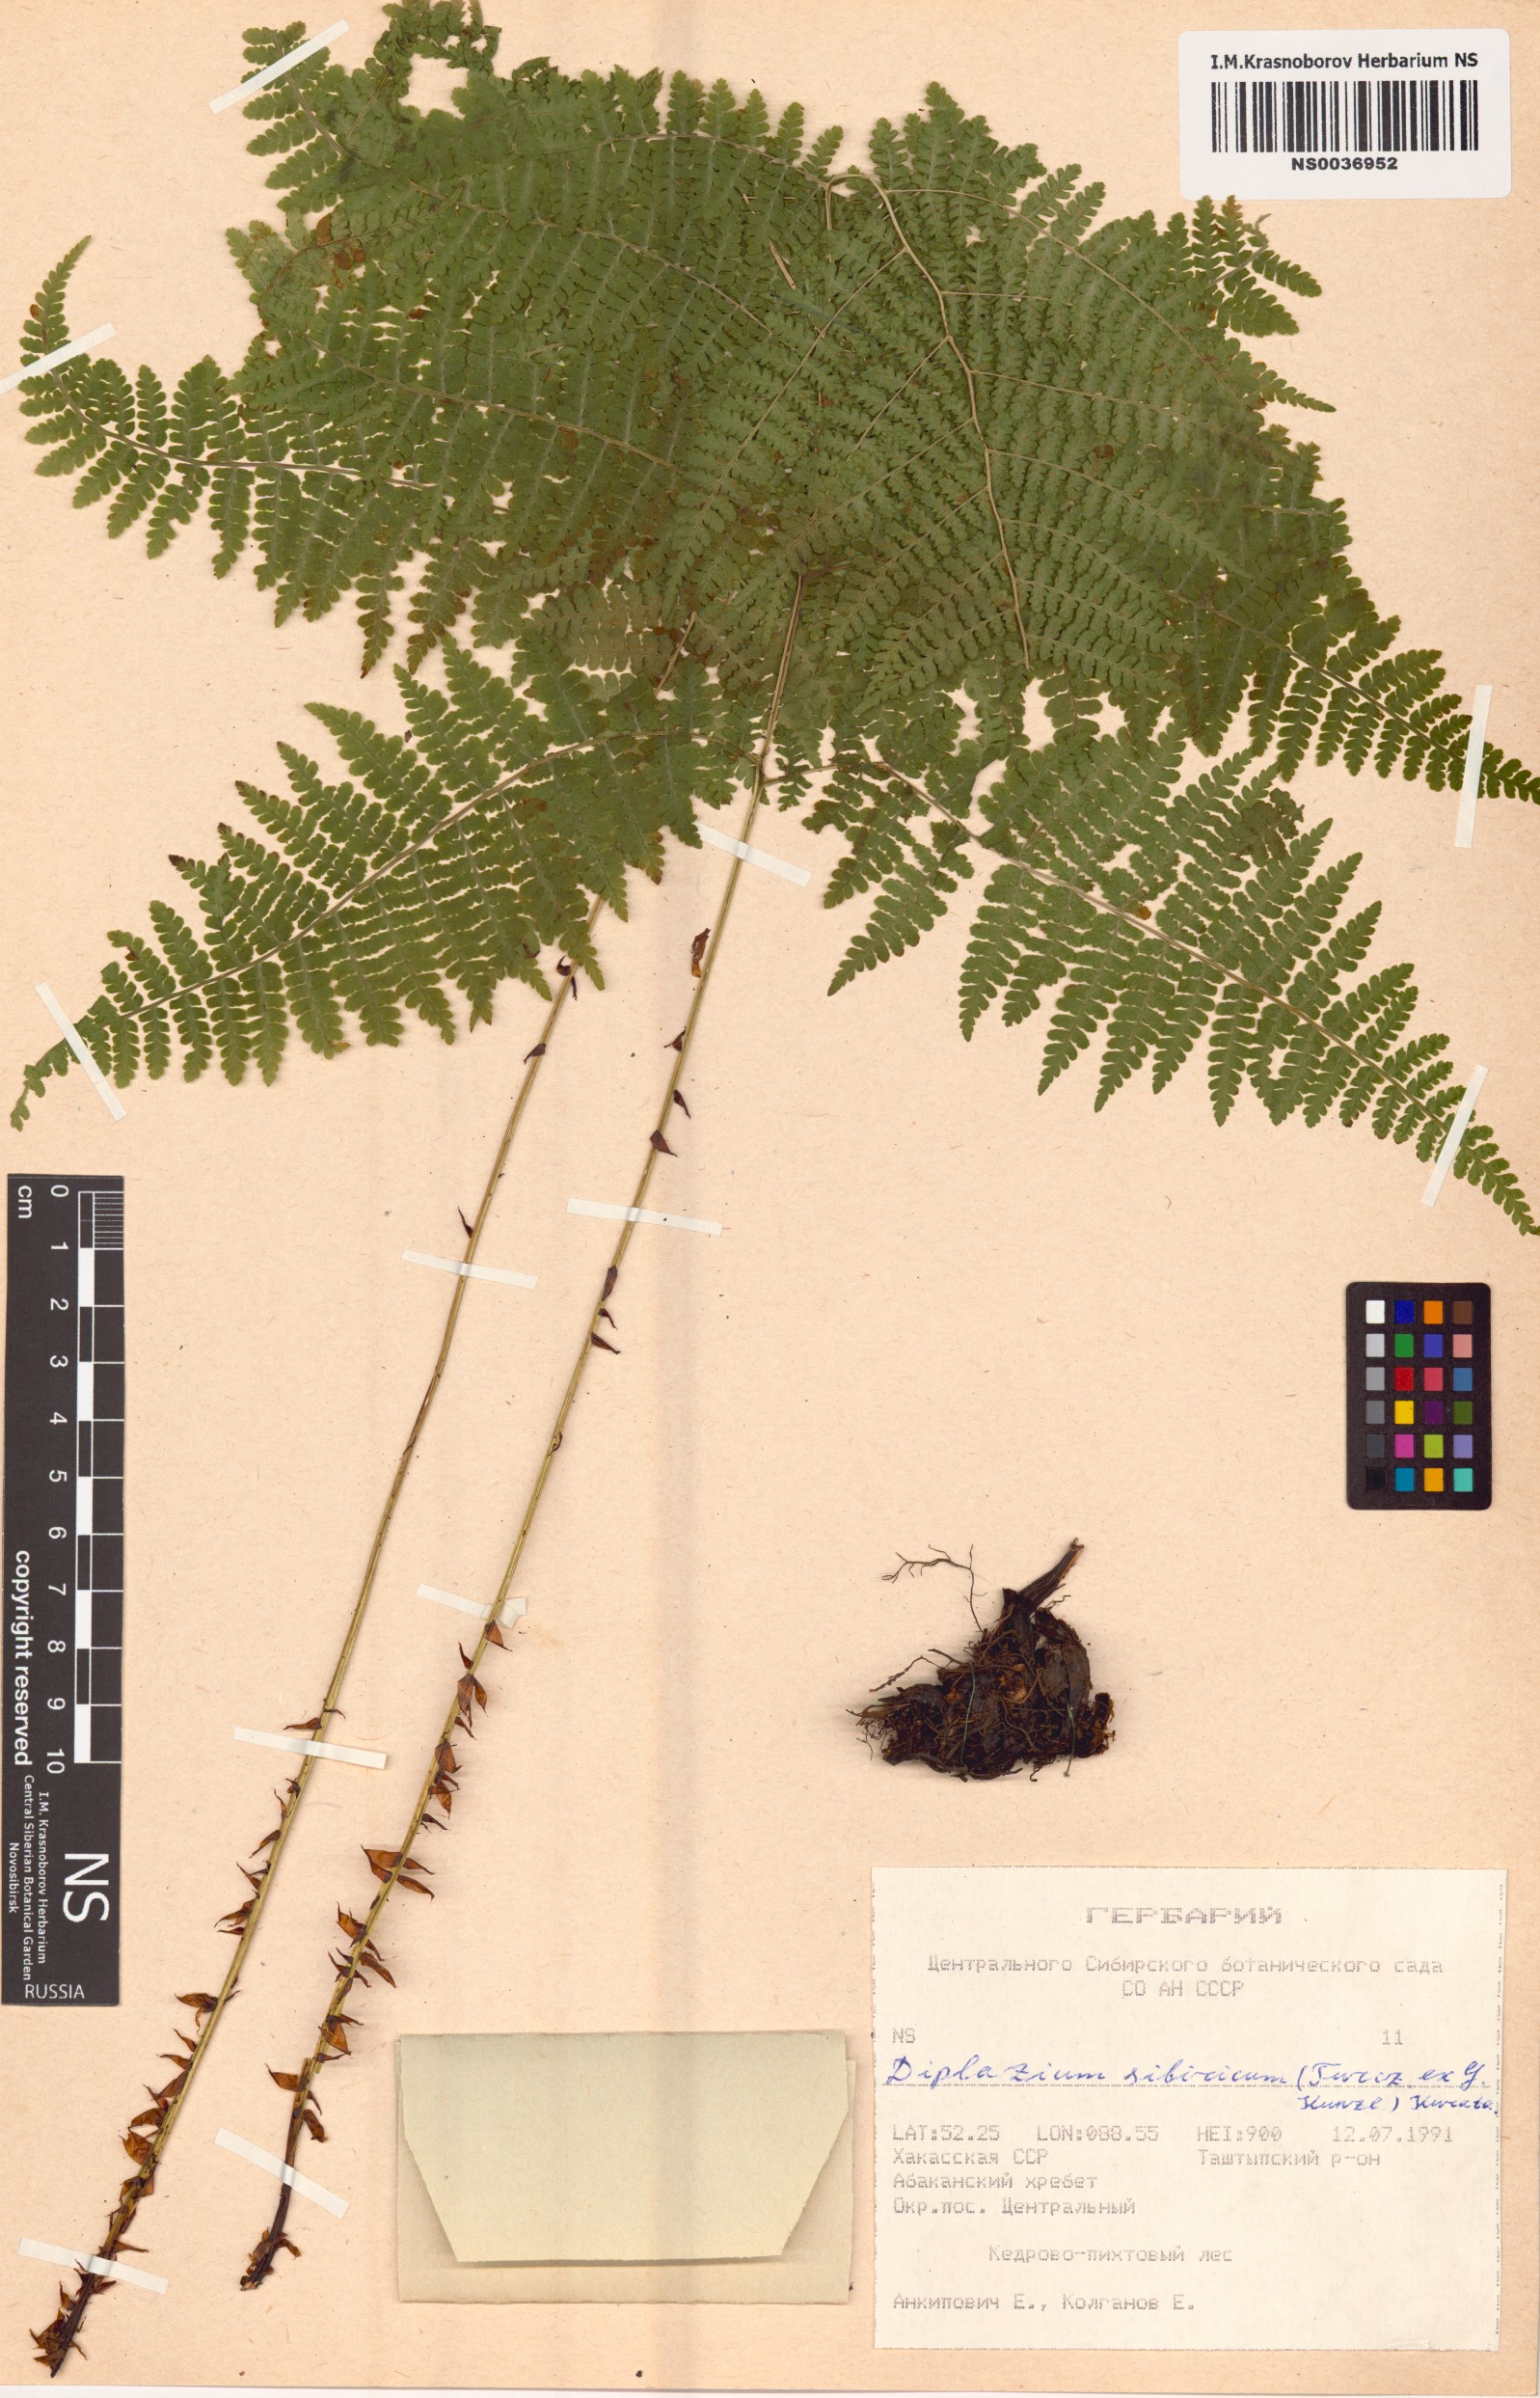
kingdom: Plantae
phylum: Tracheophyta
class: Polypodiopsida
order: Polypodiales
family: Athyriaceae
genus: Diplazium
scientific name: Diplazium sibiricum
